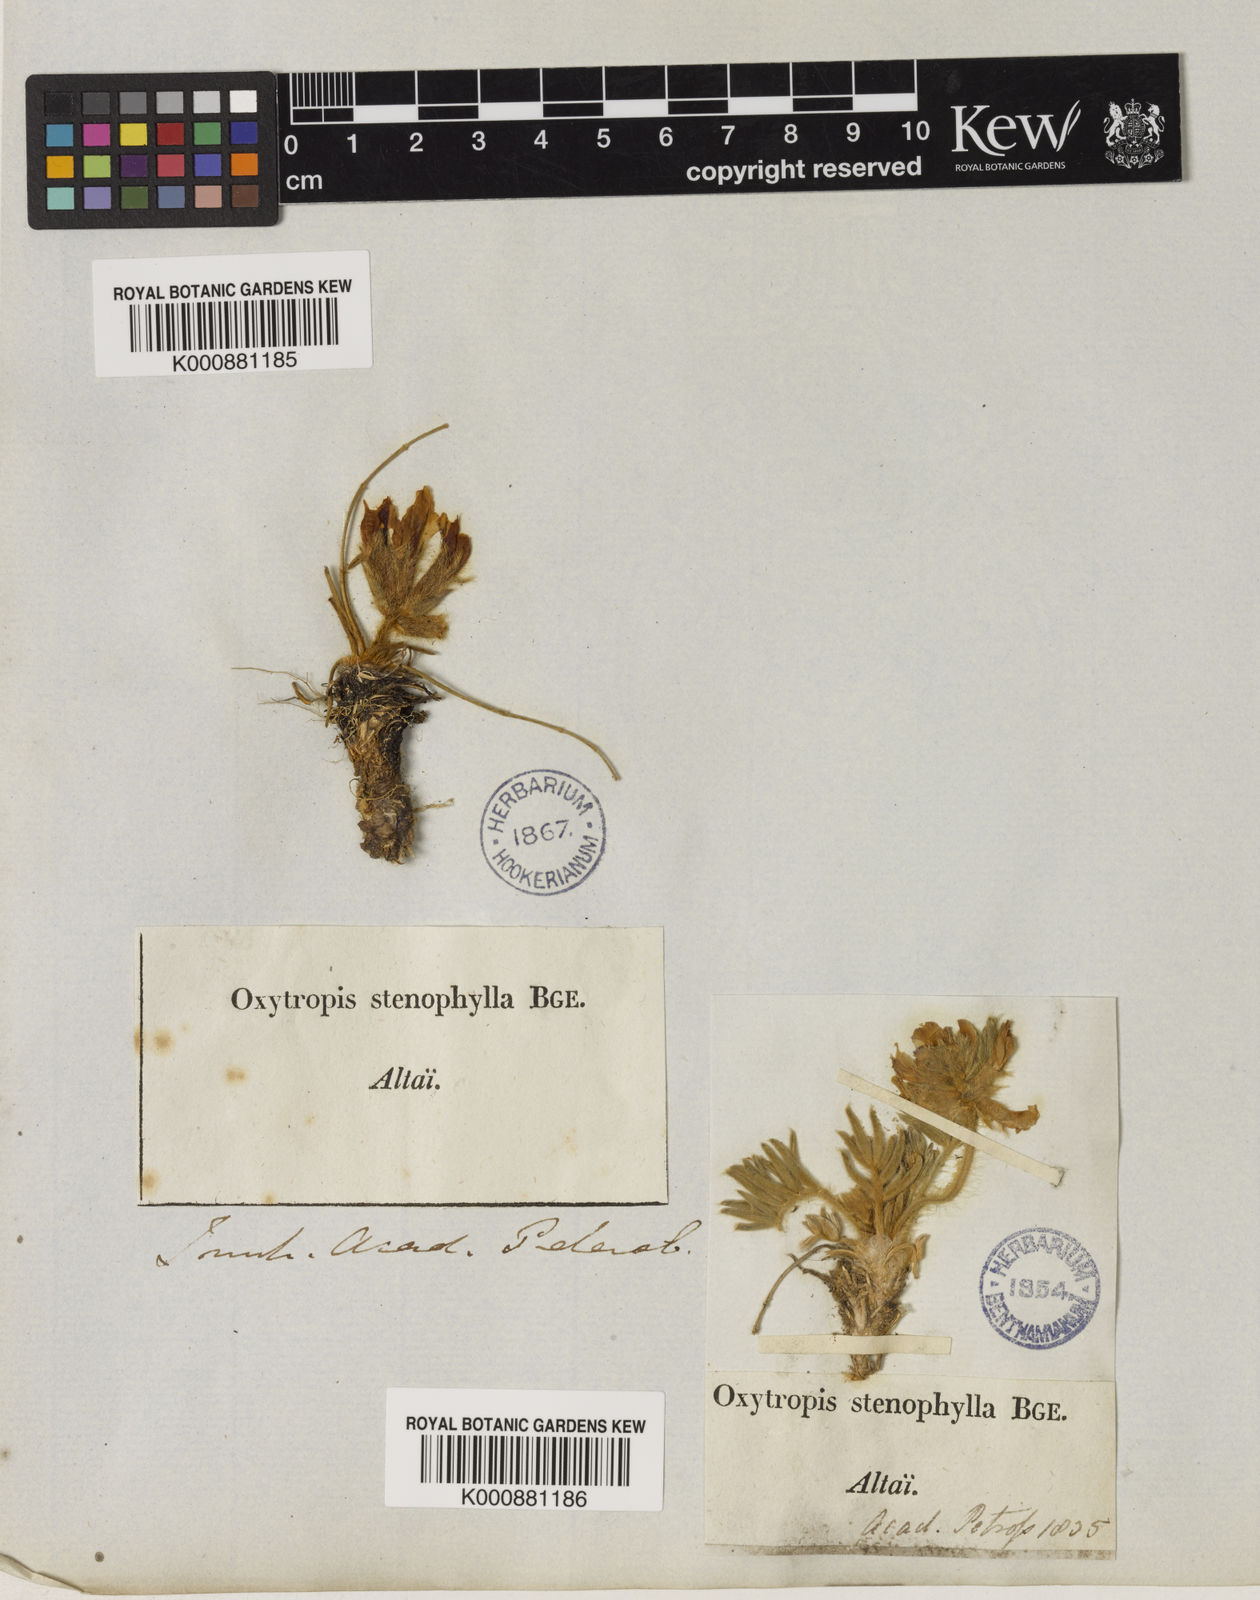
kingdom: Plantae
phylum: Tracheophyta
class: Magnoliopsida
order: Fabales
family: Fabaceae
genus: Oxytropis
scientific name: Oxytropis stenophylla
